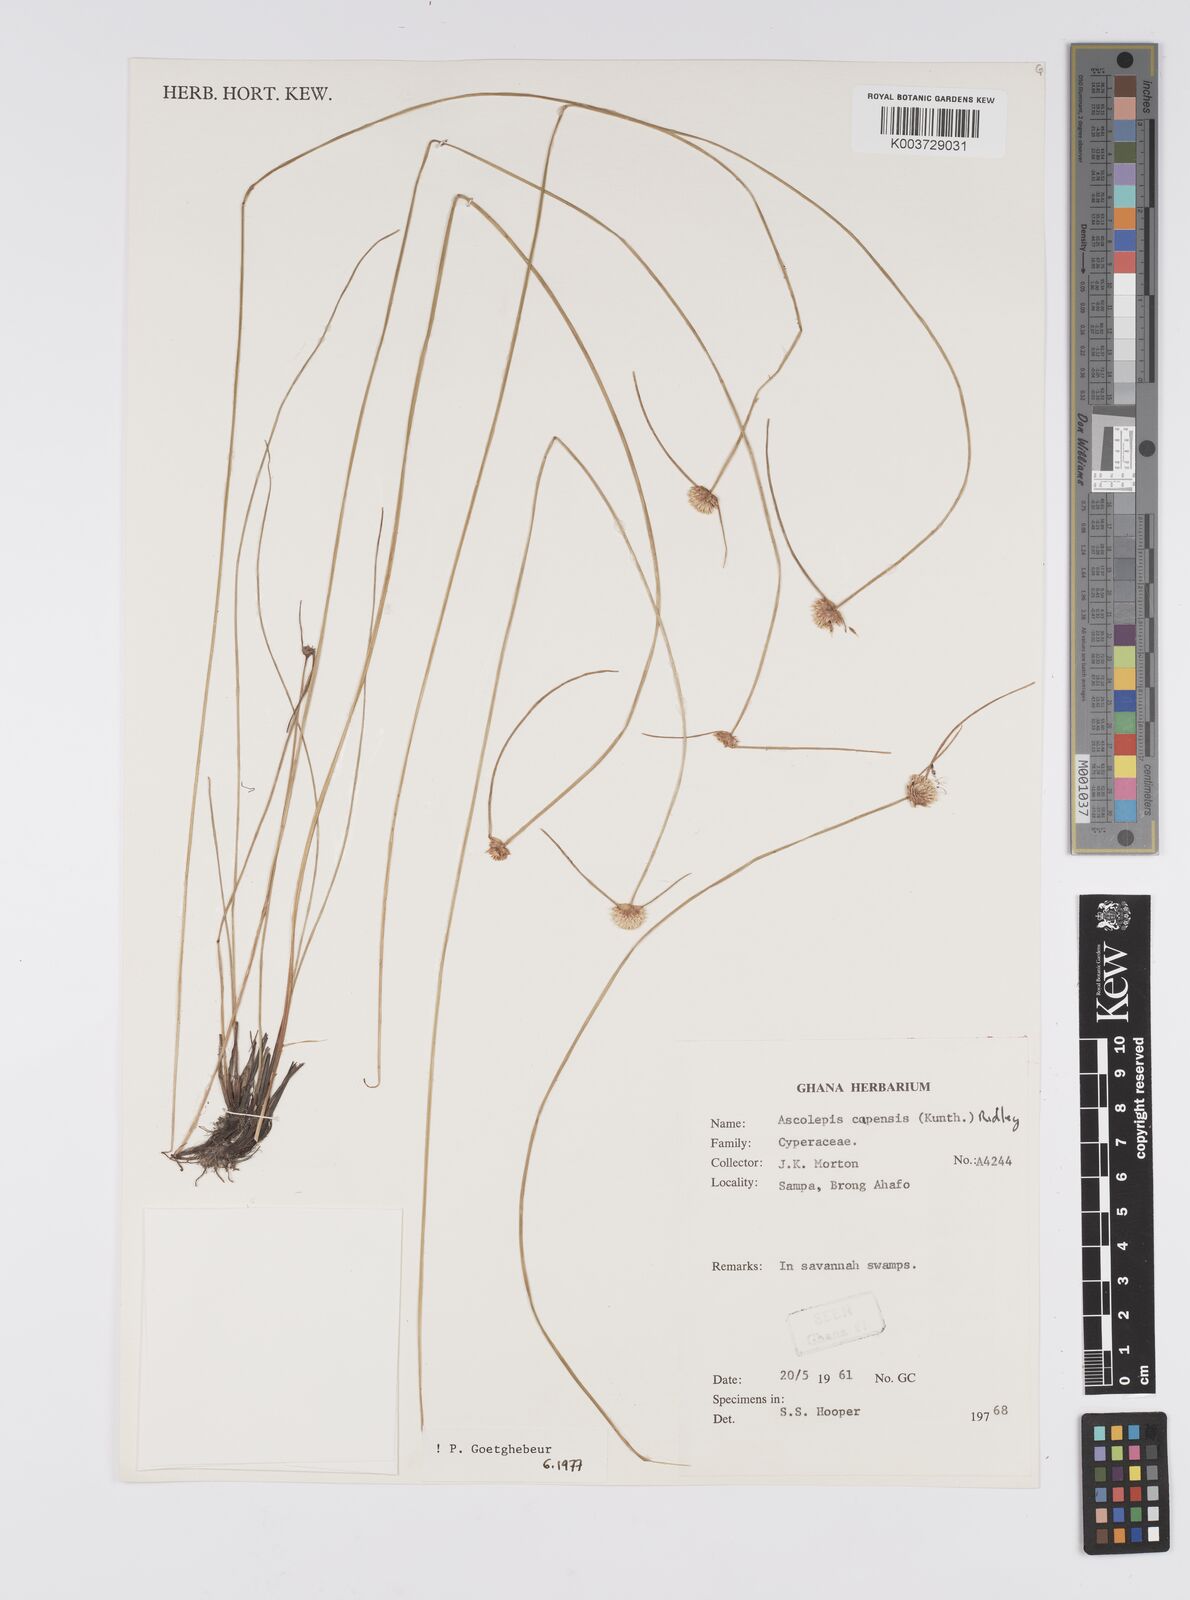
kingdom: Plantae
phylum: Tracheophyta
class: Liliopsida
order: Poales
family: Cyperaceae
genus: Ascolepis
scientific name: Ascolepis
